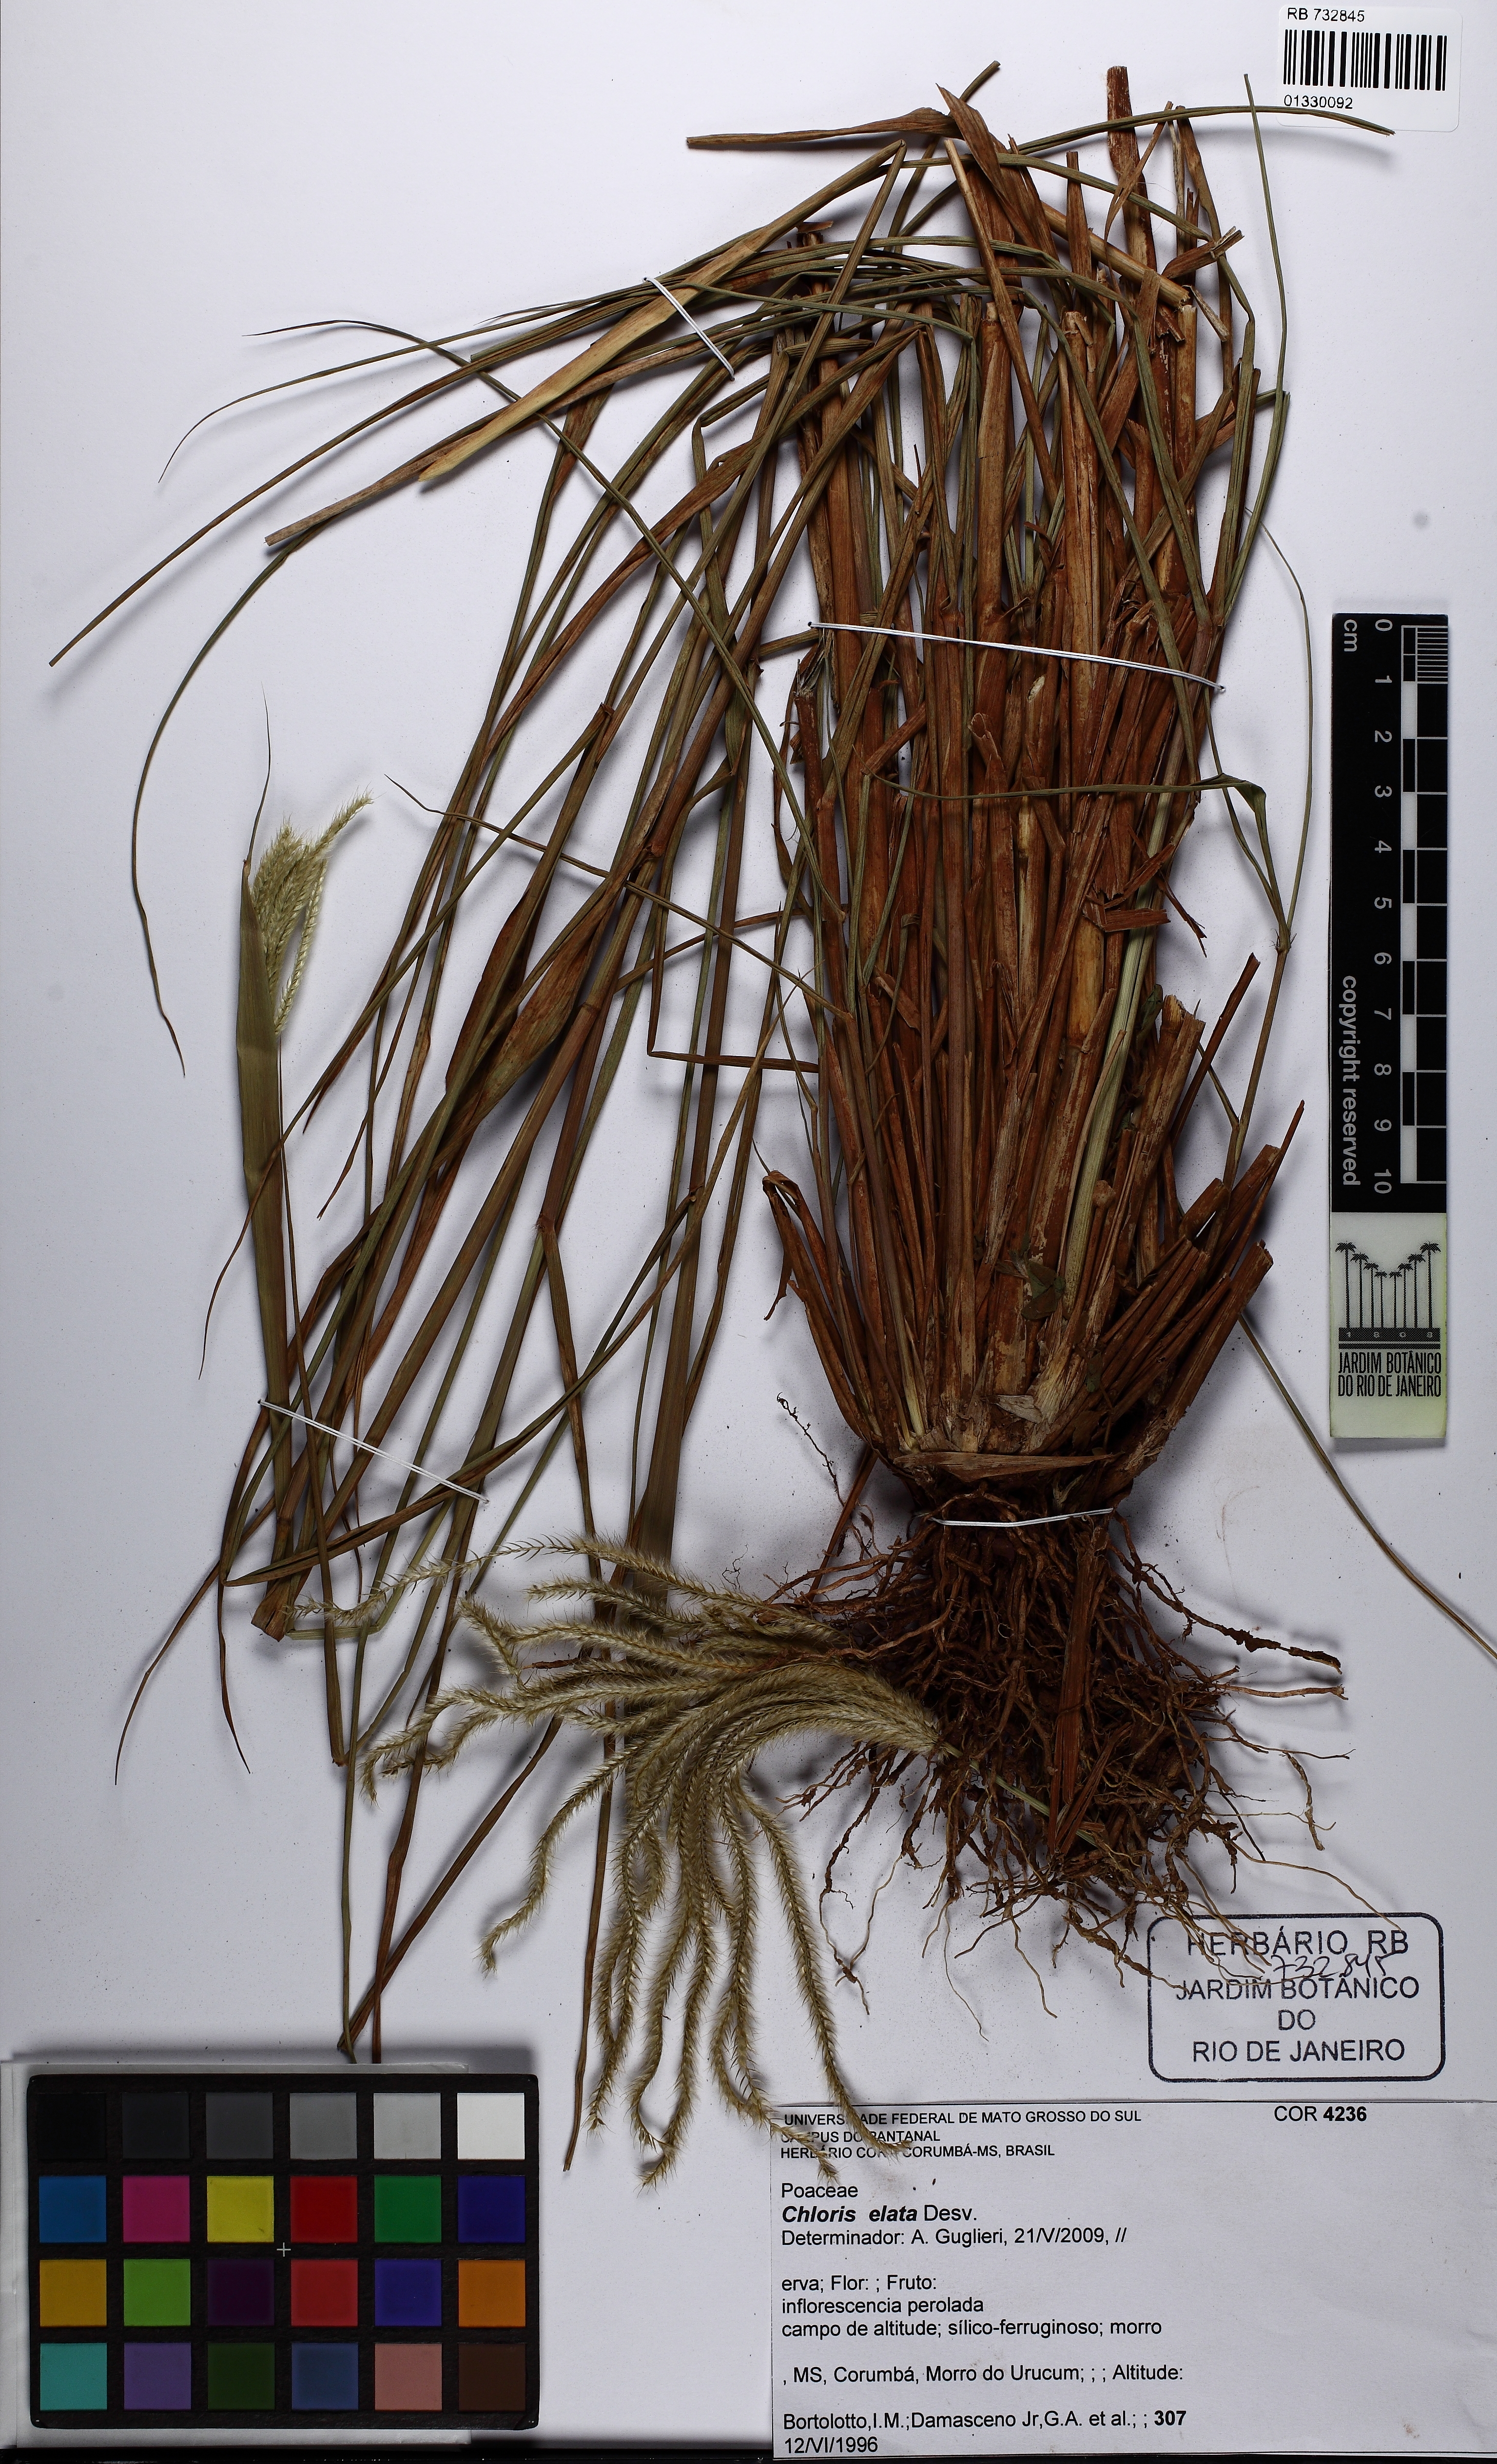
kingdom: Plantae
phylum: Tracheophyta
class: Liliopsida
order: Poales
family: Poaceae
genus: Stapfochloa
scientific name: Stapfochloa elata
